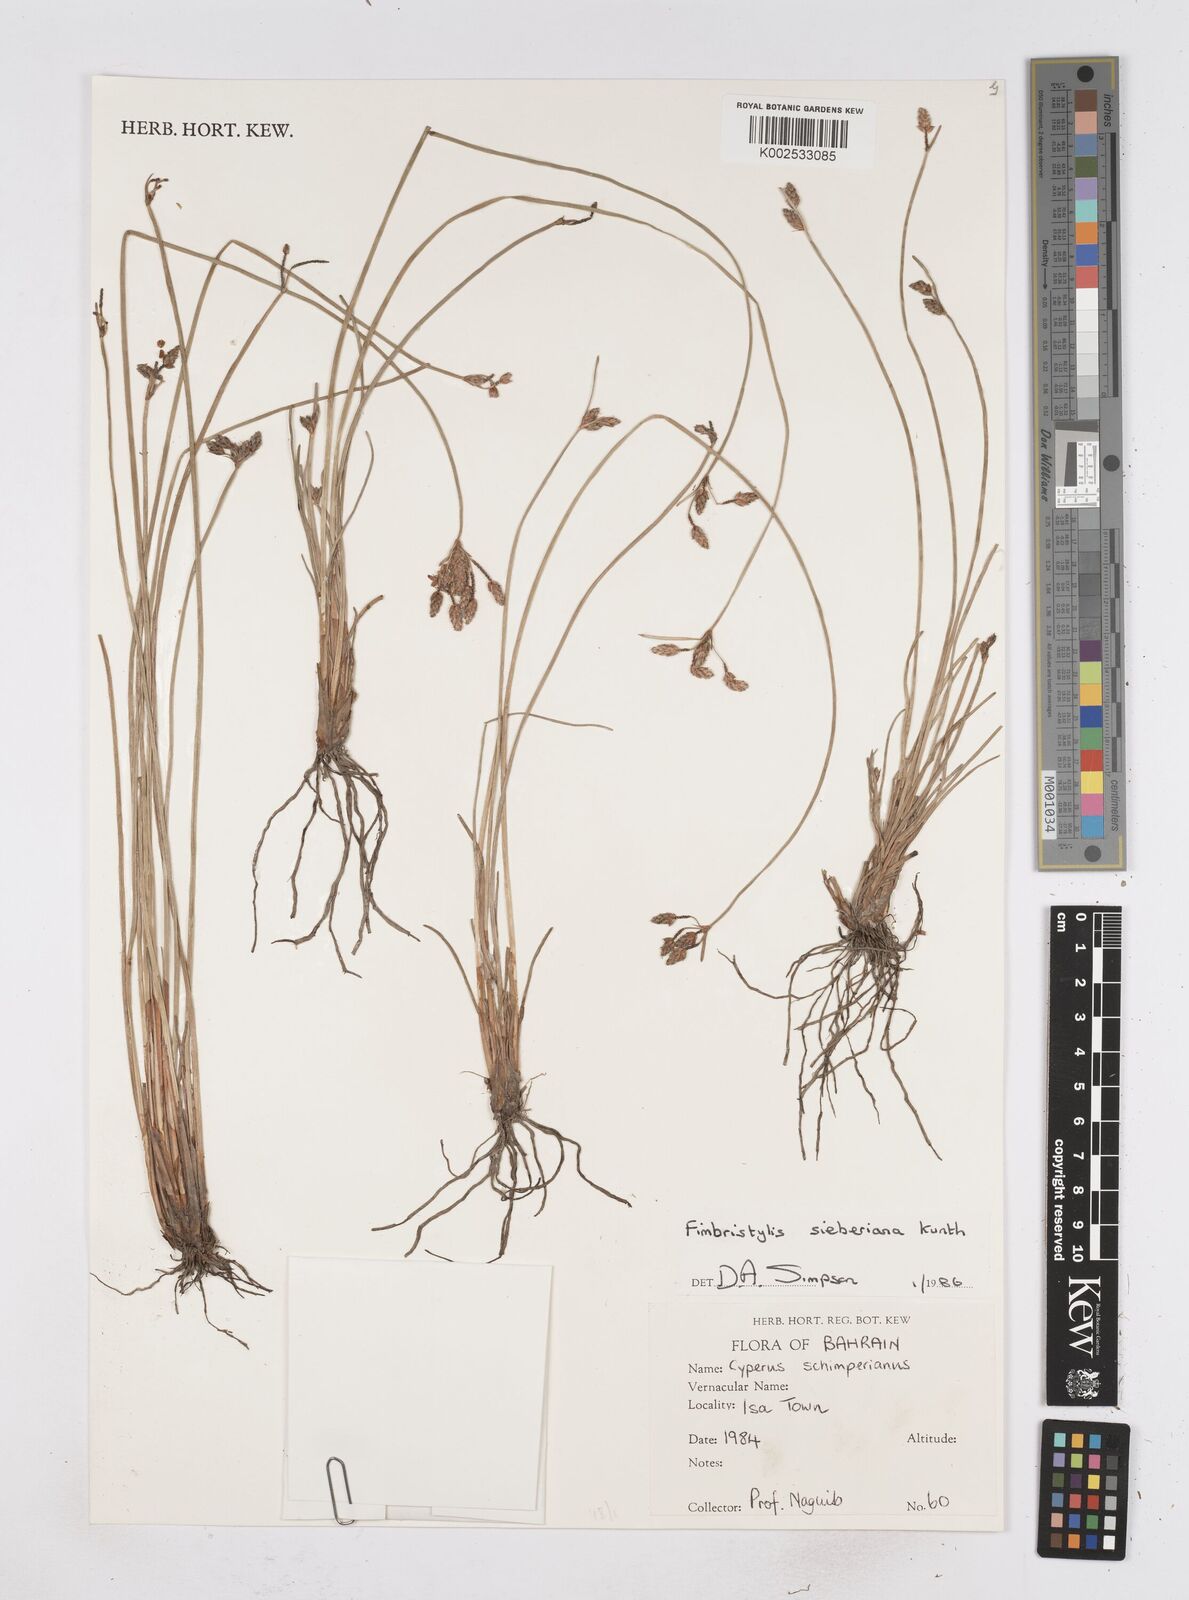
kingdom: Plantae
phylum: Tracheophyta
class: Liliopsida
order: Poales
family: Cyperaceae
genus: Fimbristylis
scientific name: Fimbristylis ferruginea
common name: West indian fimbry
